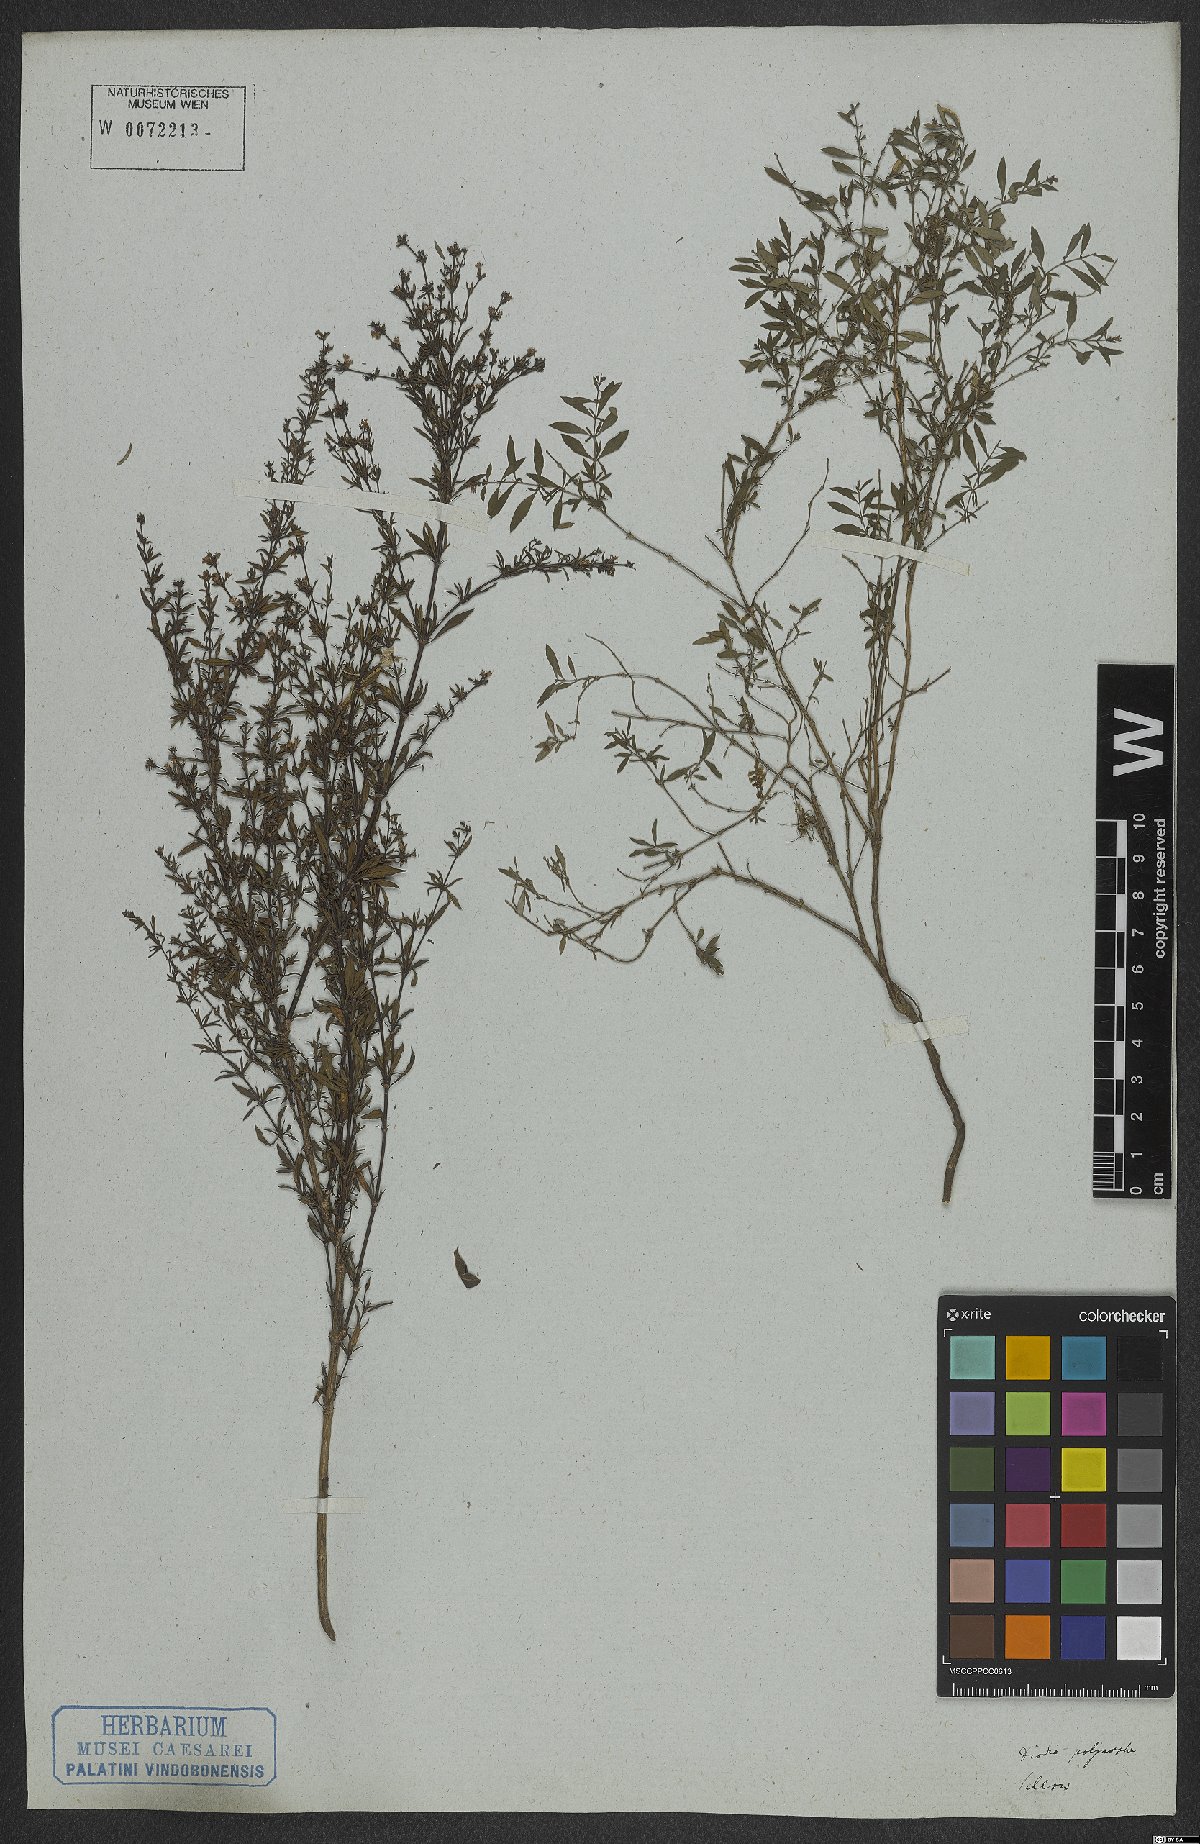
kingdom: Plantae
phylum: Tracheophyta
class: Magnoliopsida
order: Gentianales
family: Rubiaceae
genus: Galianthe
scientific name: Galianthe brasiliensis
